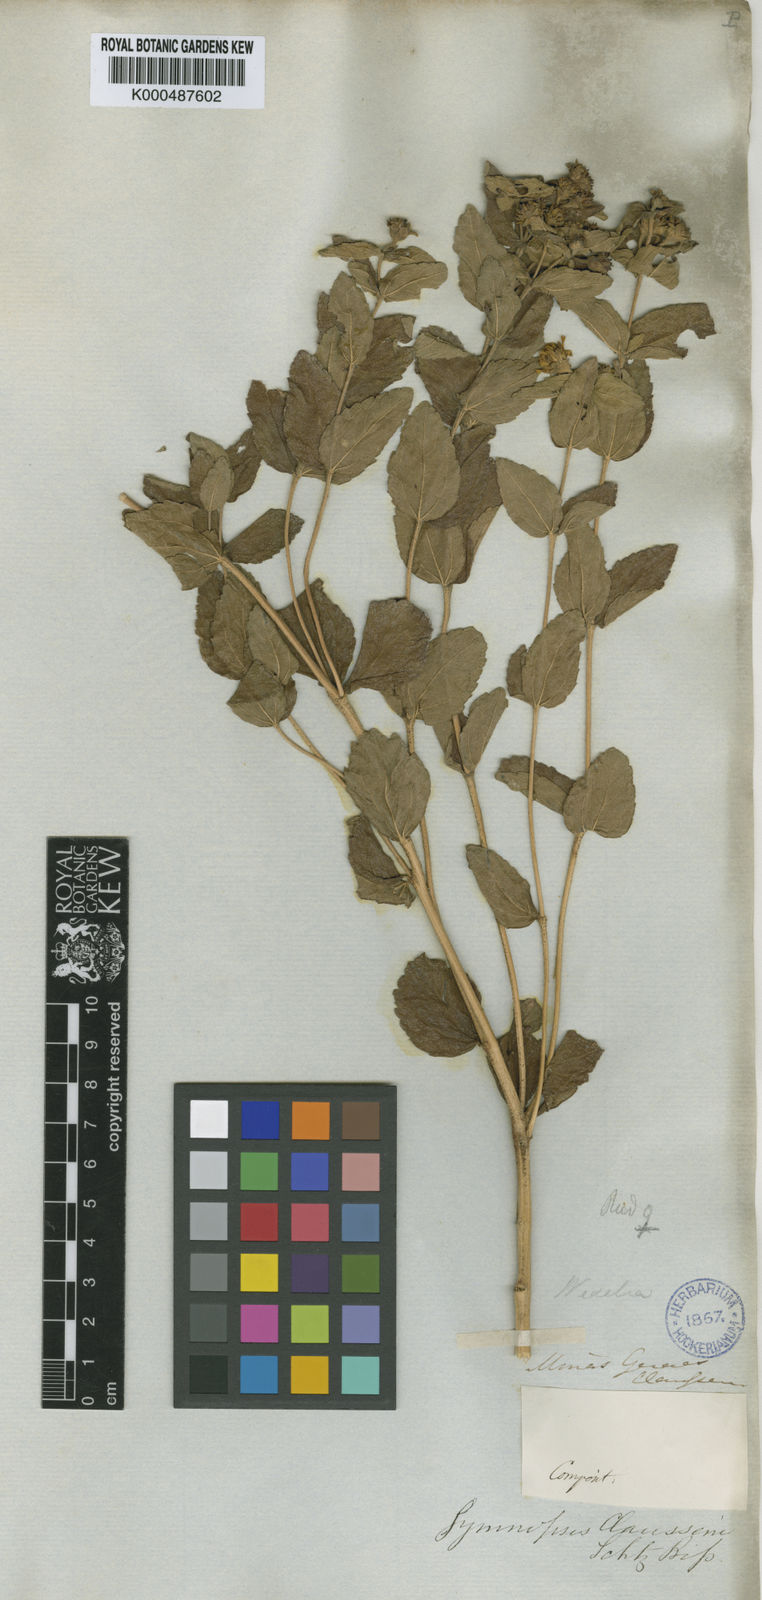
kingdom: Plantae
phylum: Tracheophyta
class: Magnoliopsida
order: Asterales
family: Asteraceae
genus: Wedelia
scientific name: Wedelia puberula
